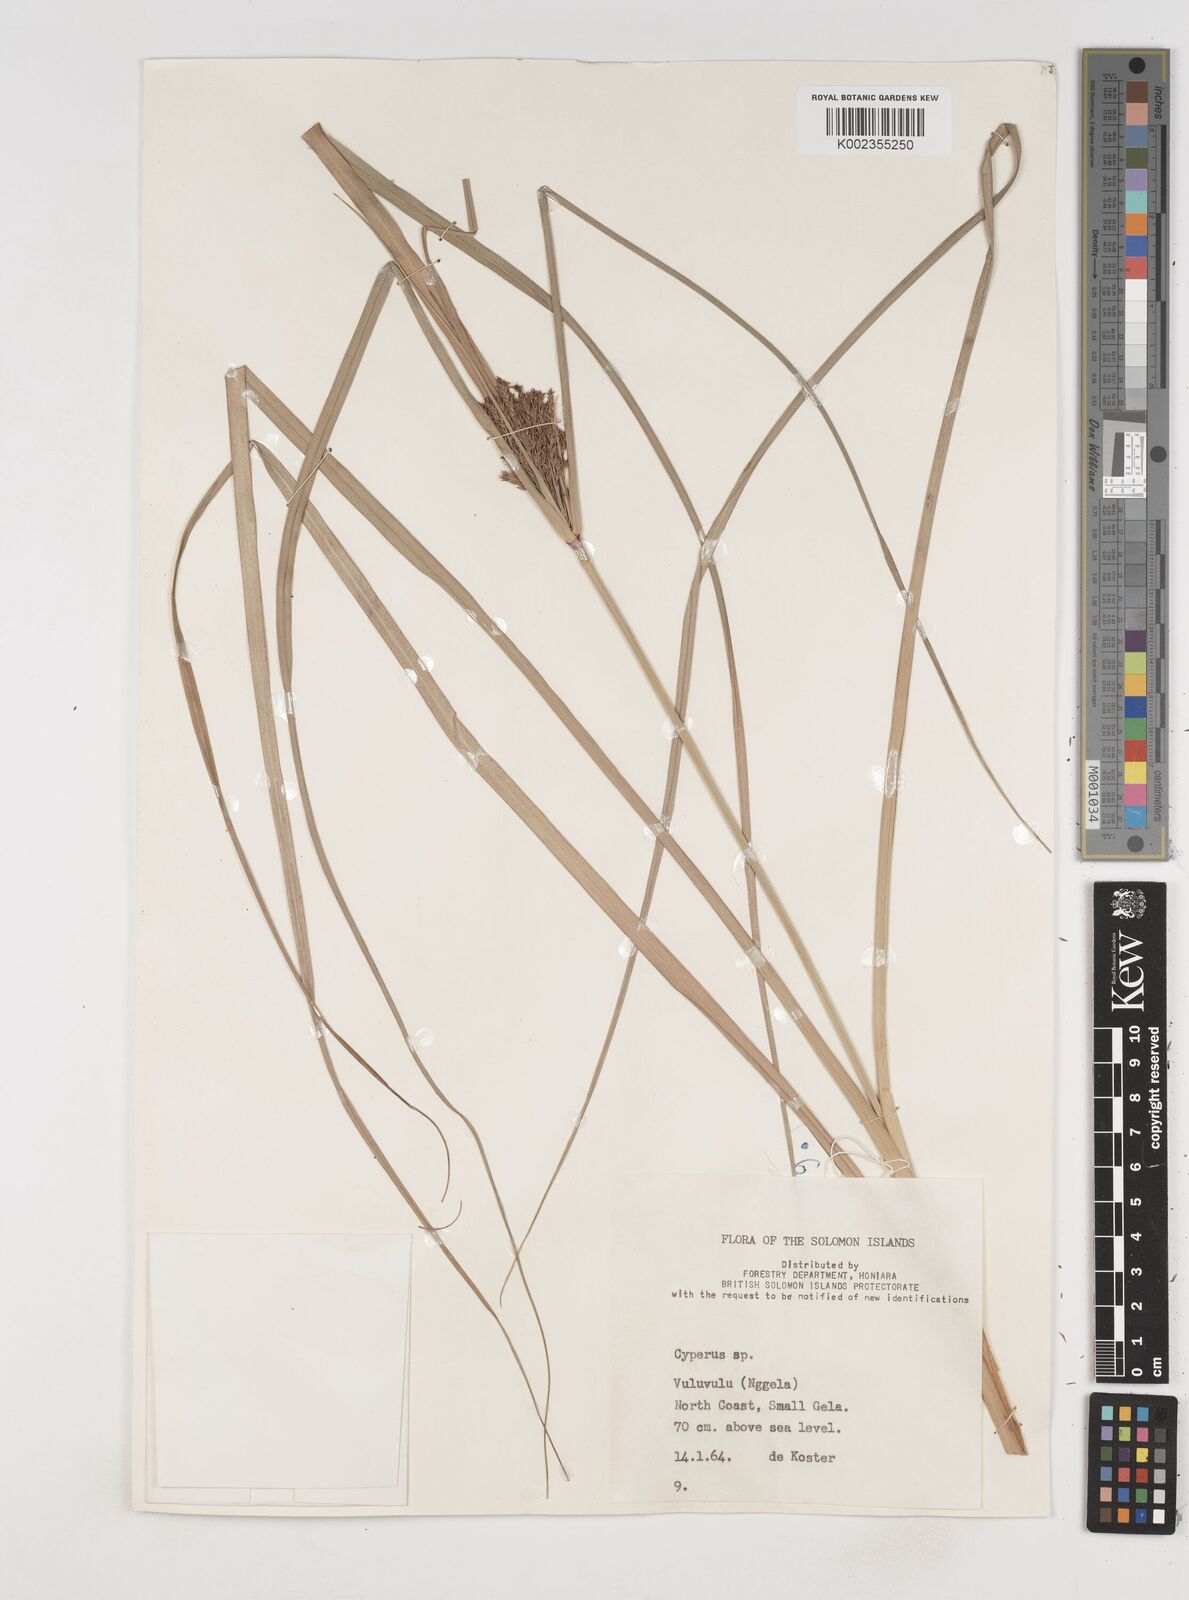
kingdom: Plantae
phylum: Tracheophyta
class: Liliopsida
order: Poales
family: Cyperaceae
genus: Cyperus
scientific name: Cyperus
